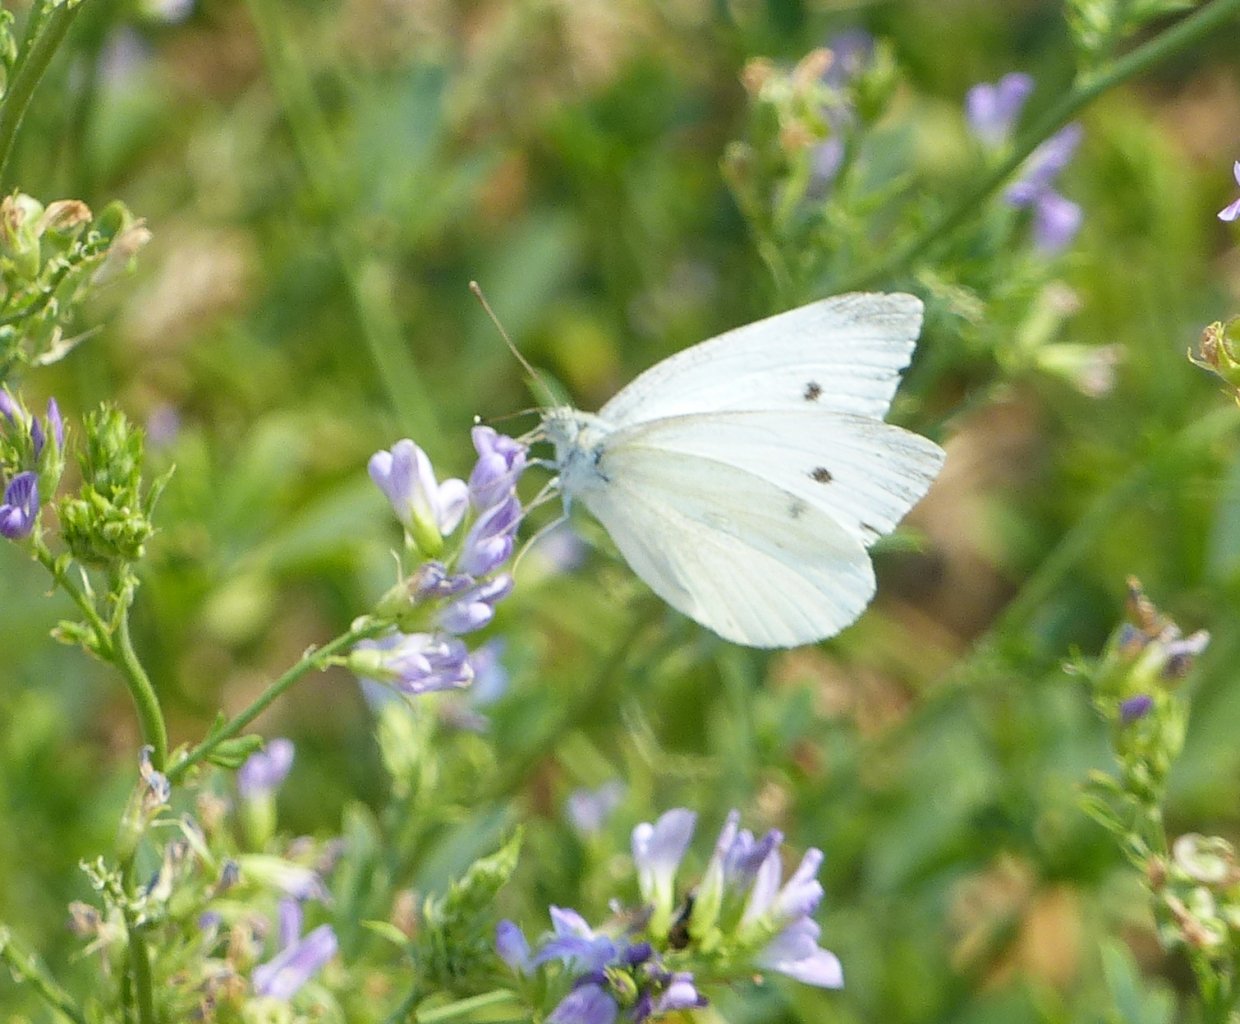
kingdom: Animalia
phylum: Arthropoda
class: Insecta
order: Lepidoptera
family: Pieridae
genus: Pieris
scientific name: Pieris rapae
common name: Cabbage White
